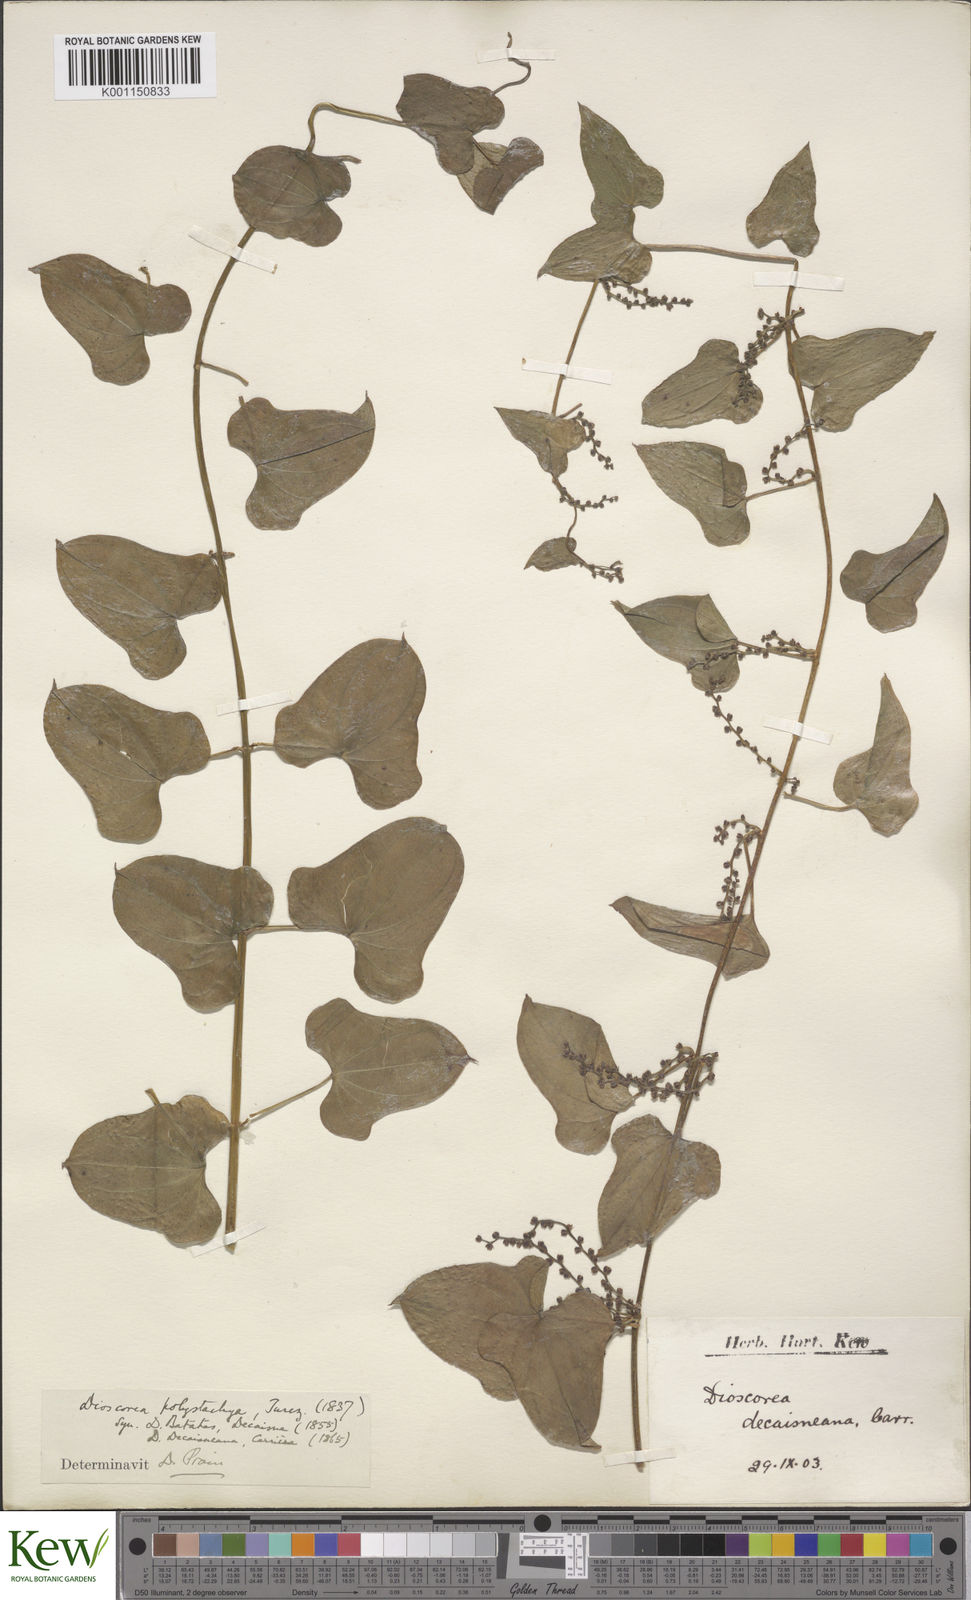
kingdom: Plantae
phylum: Tracheophyta
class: Liliopsida
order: Dioscoreales
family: Dioscoreaceae
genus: Dioscorea
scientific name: Dioscorea polystachya
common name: Chinese yam
